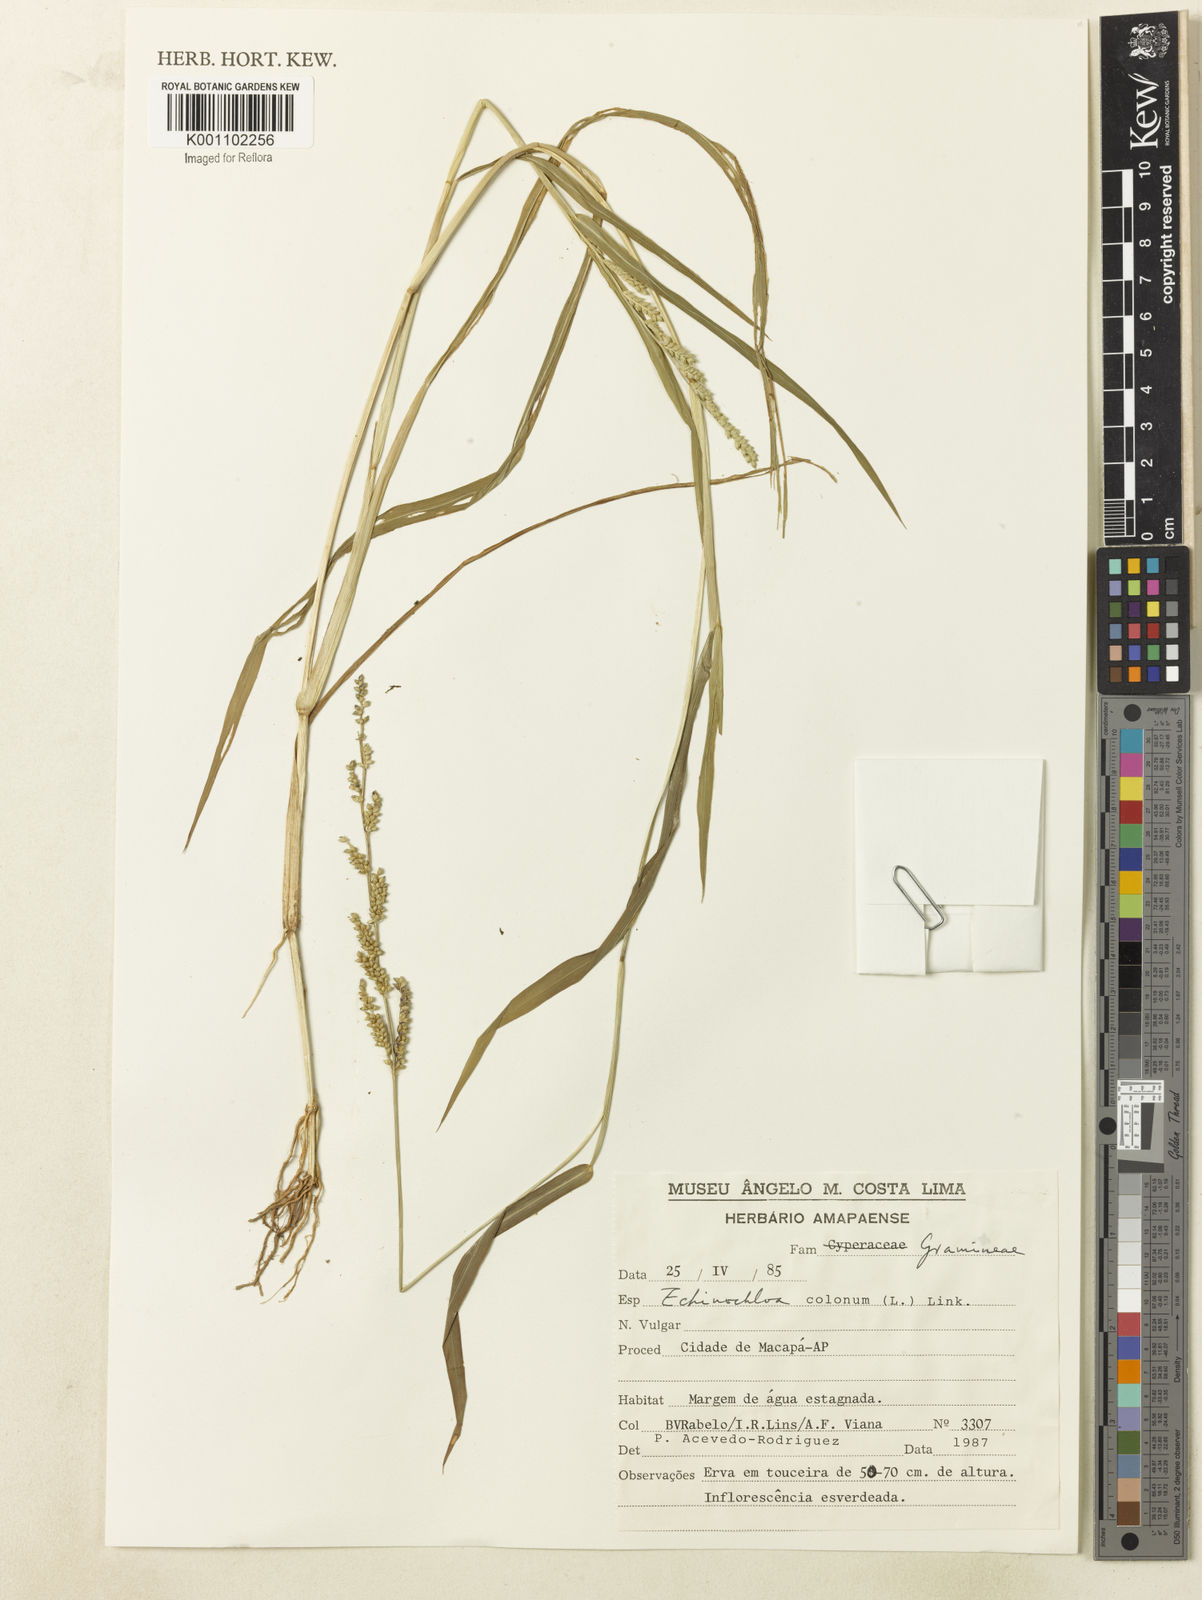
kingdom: Plantae
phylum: Tracheophyta
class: Liliopsida
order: Poales
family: Poaceae
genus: Echinochloa
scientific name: Echinochloa colonum
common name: Jungle rice
